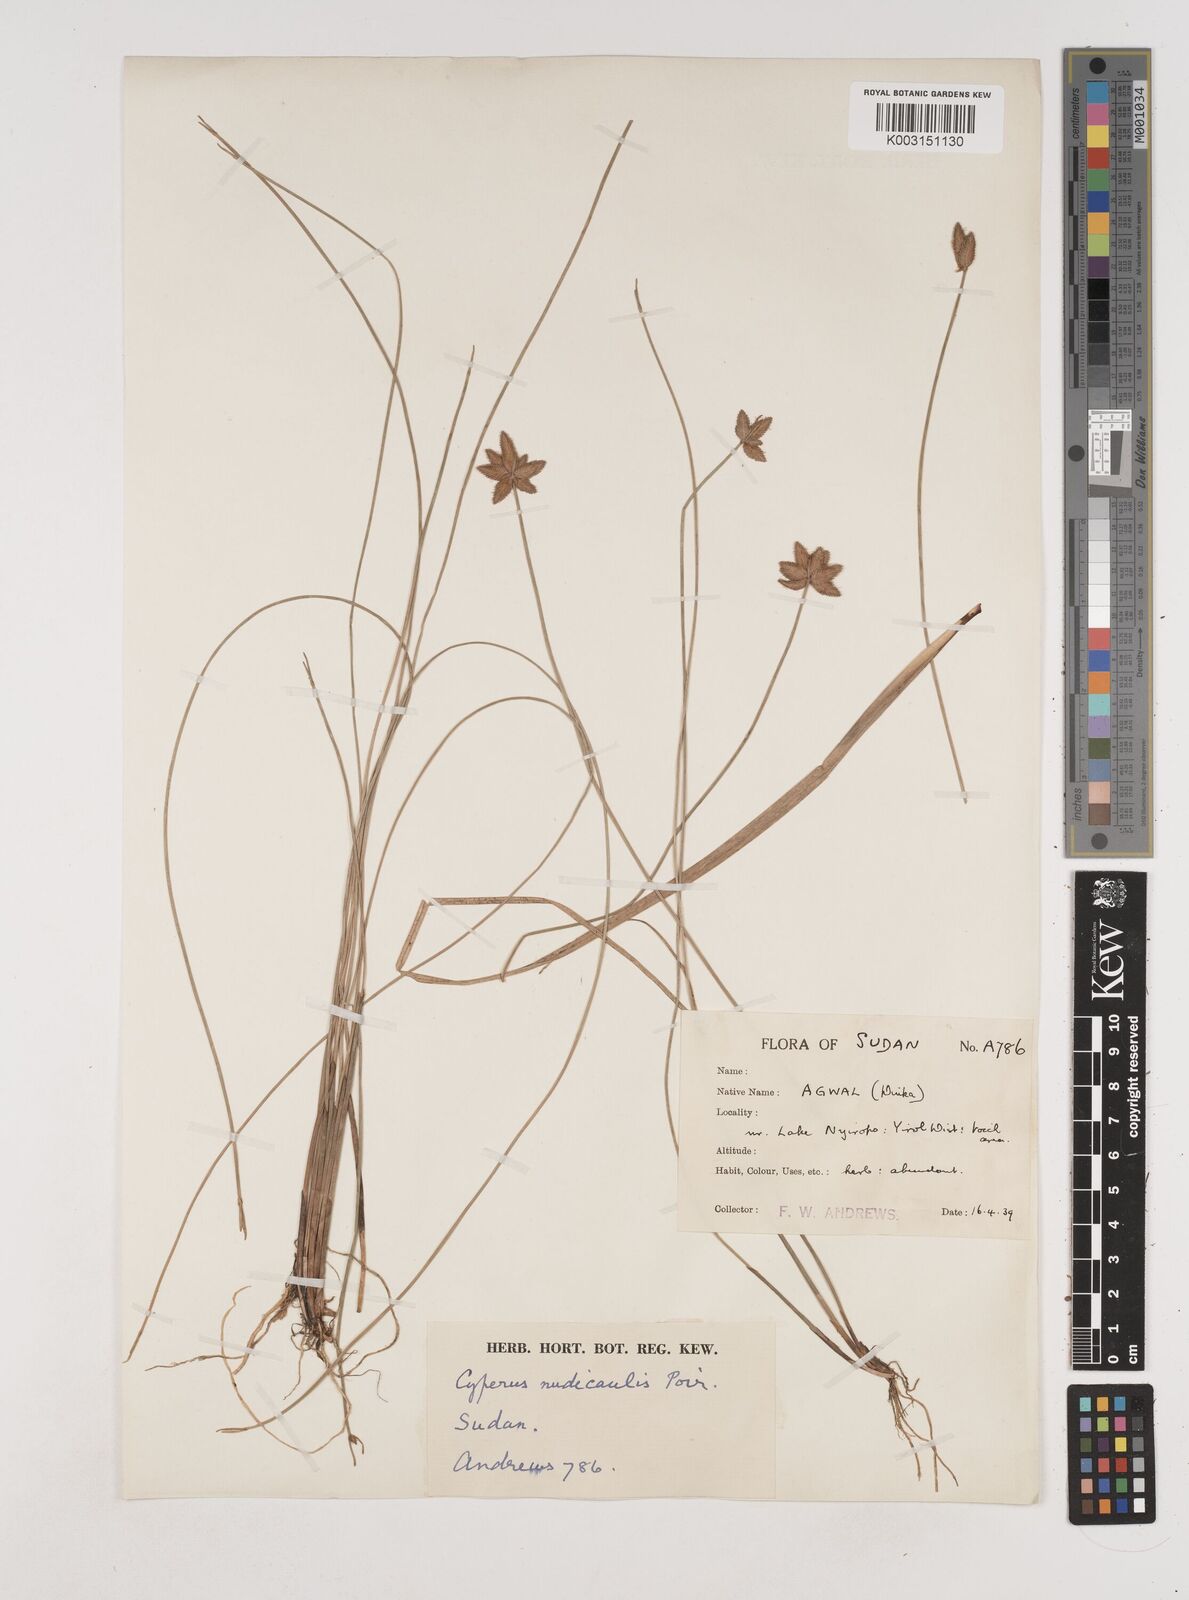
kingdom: Plantae
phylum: Tracheophyta
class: Liliopsida
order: Poales
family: Cyperaceae
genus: Cyperus
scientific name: Cyperus pectinatus
